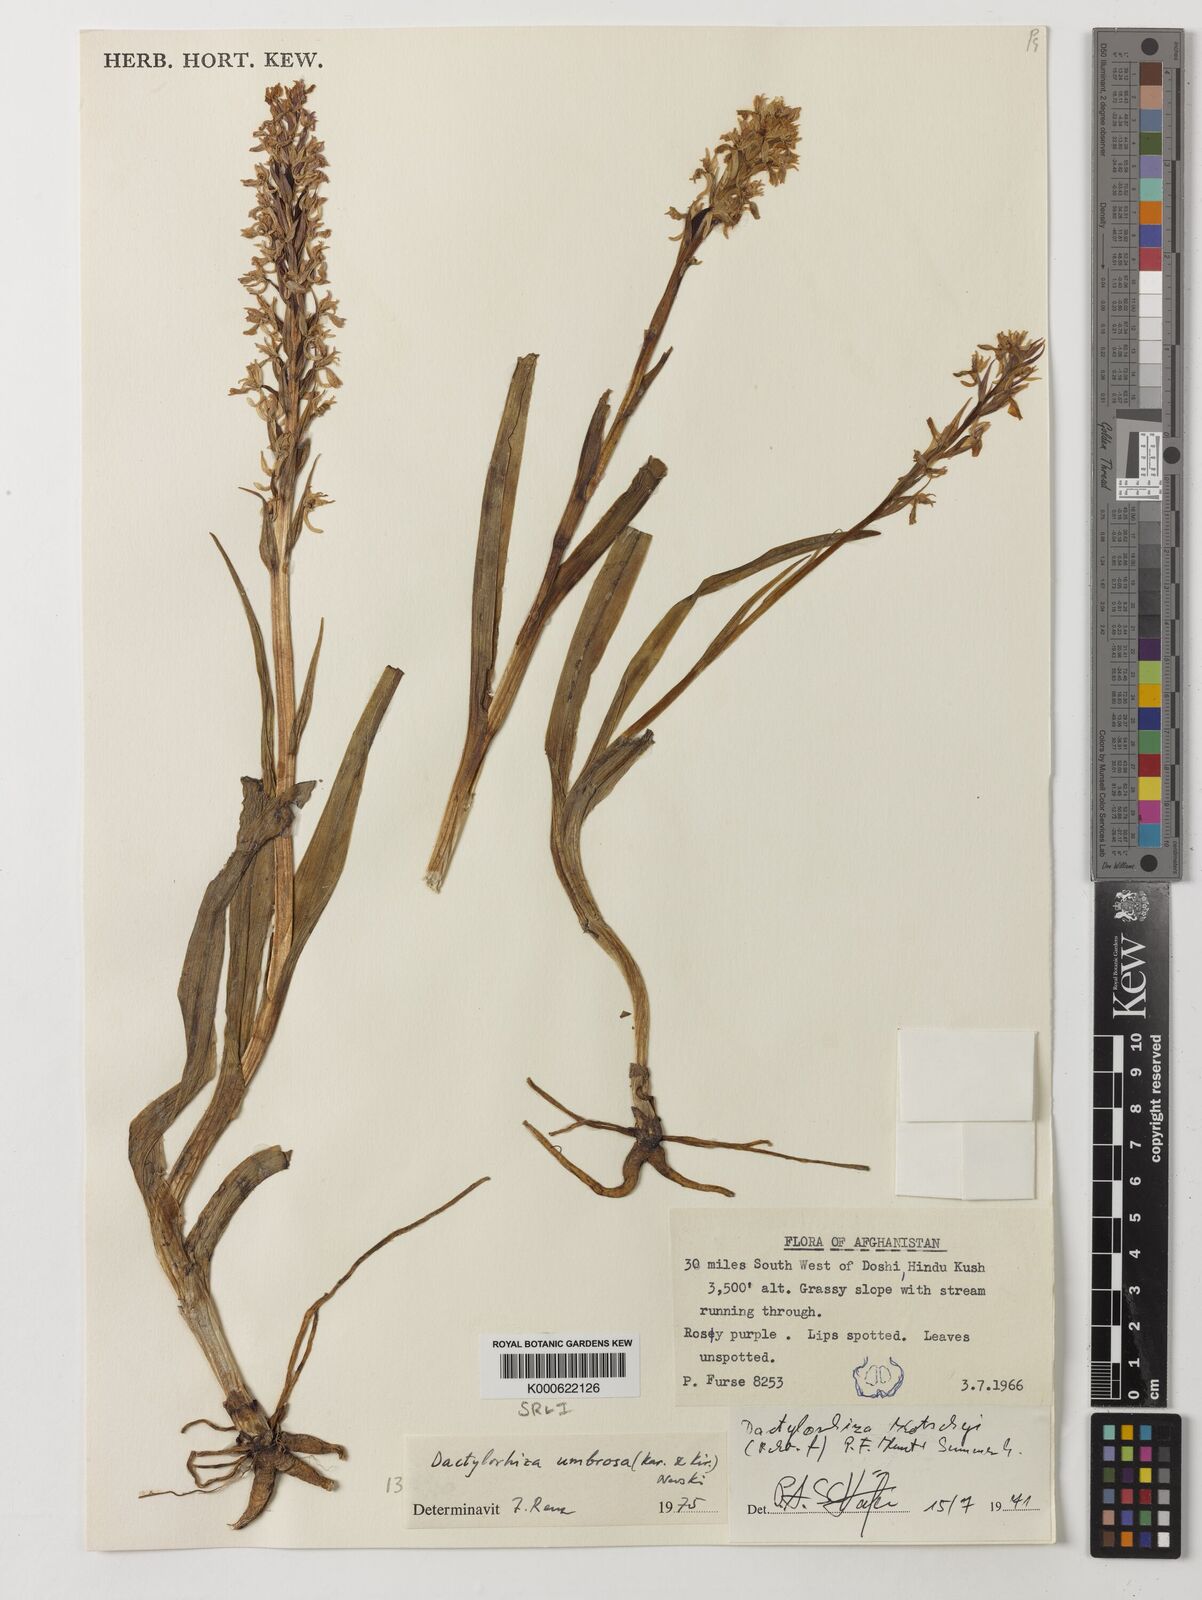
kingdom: Plantae
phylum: Tracheophyta
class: Liliopsida
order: Asparagales
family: Orchidaceae
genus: Dactylorhiza
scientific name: Dactylorhiza
